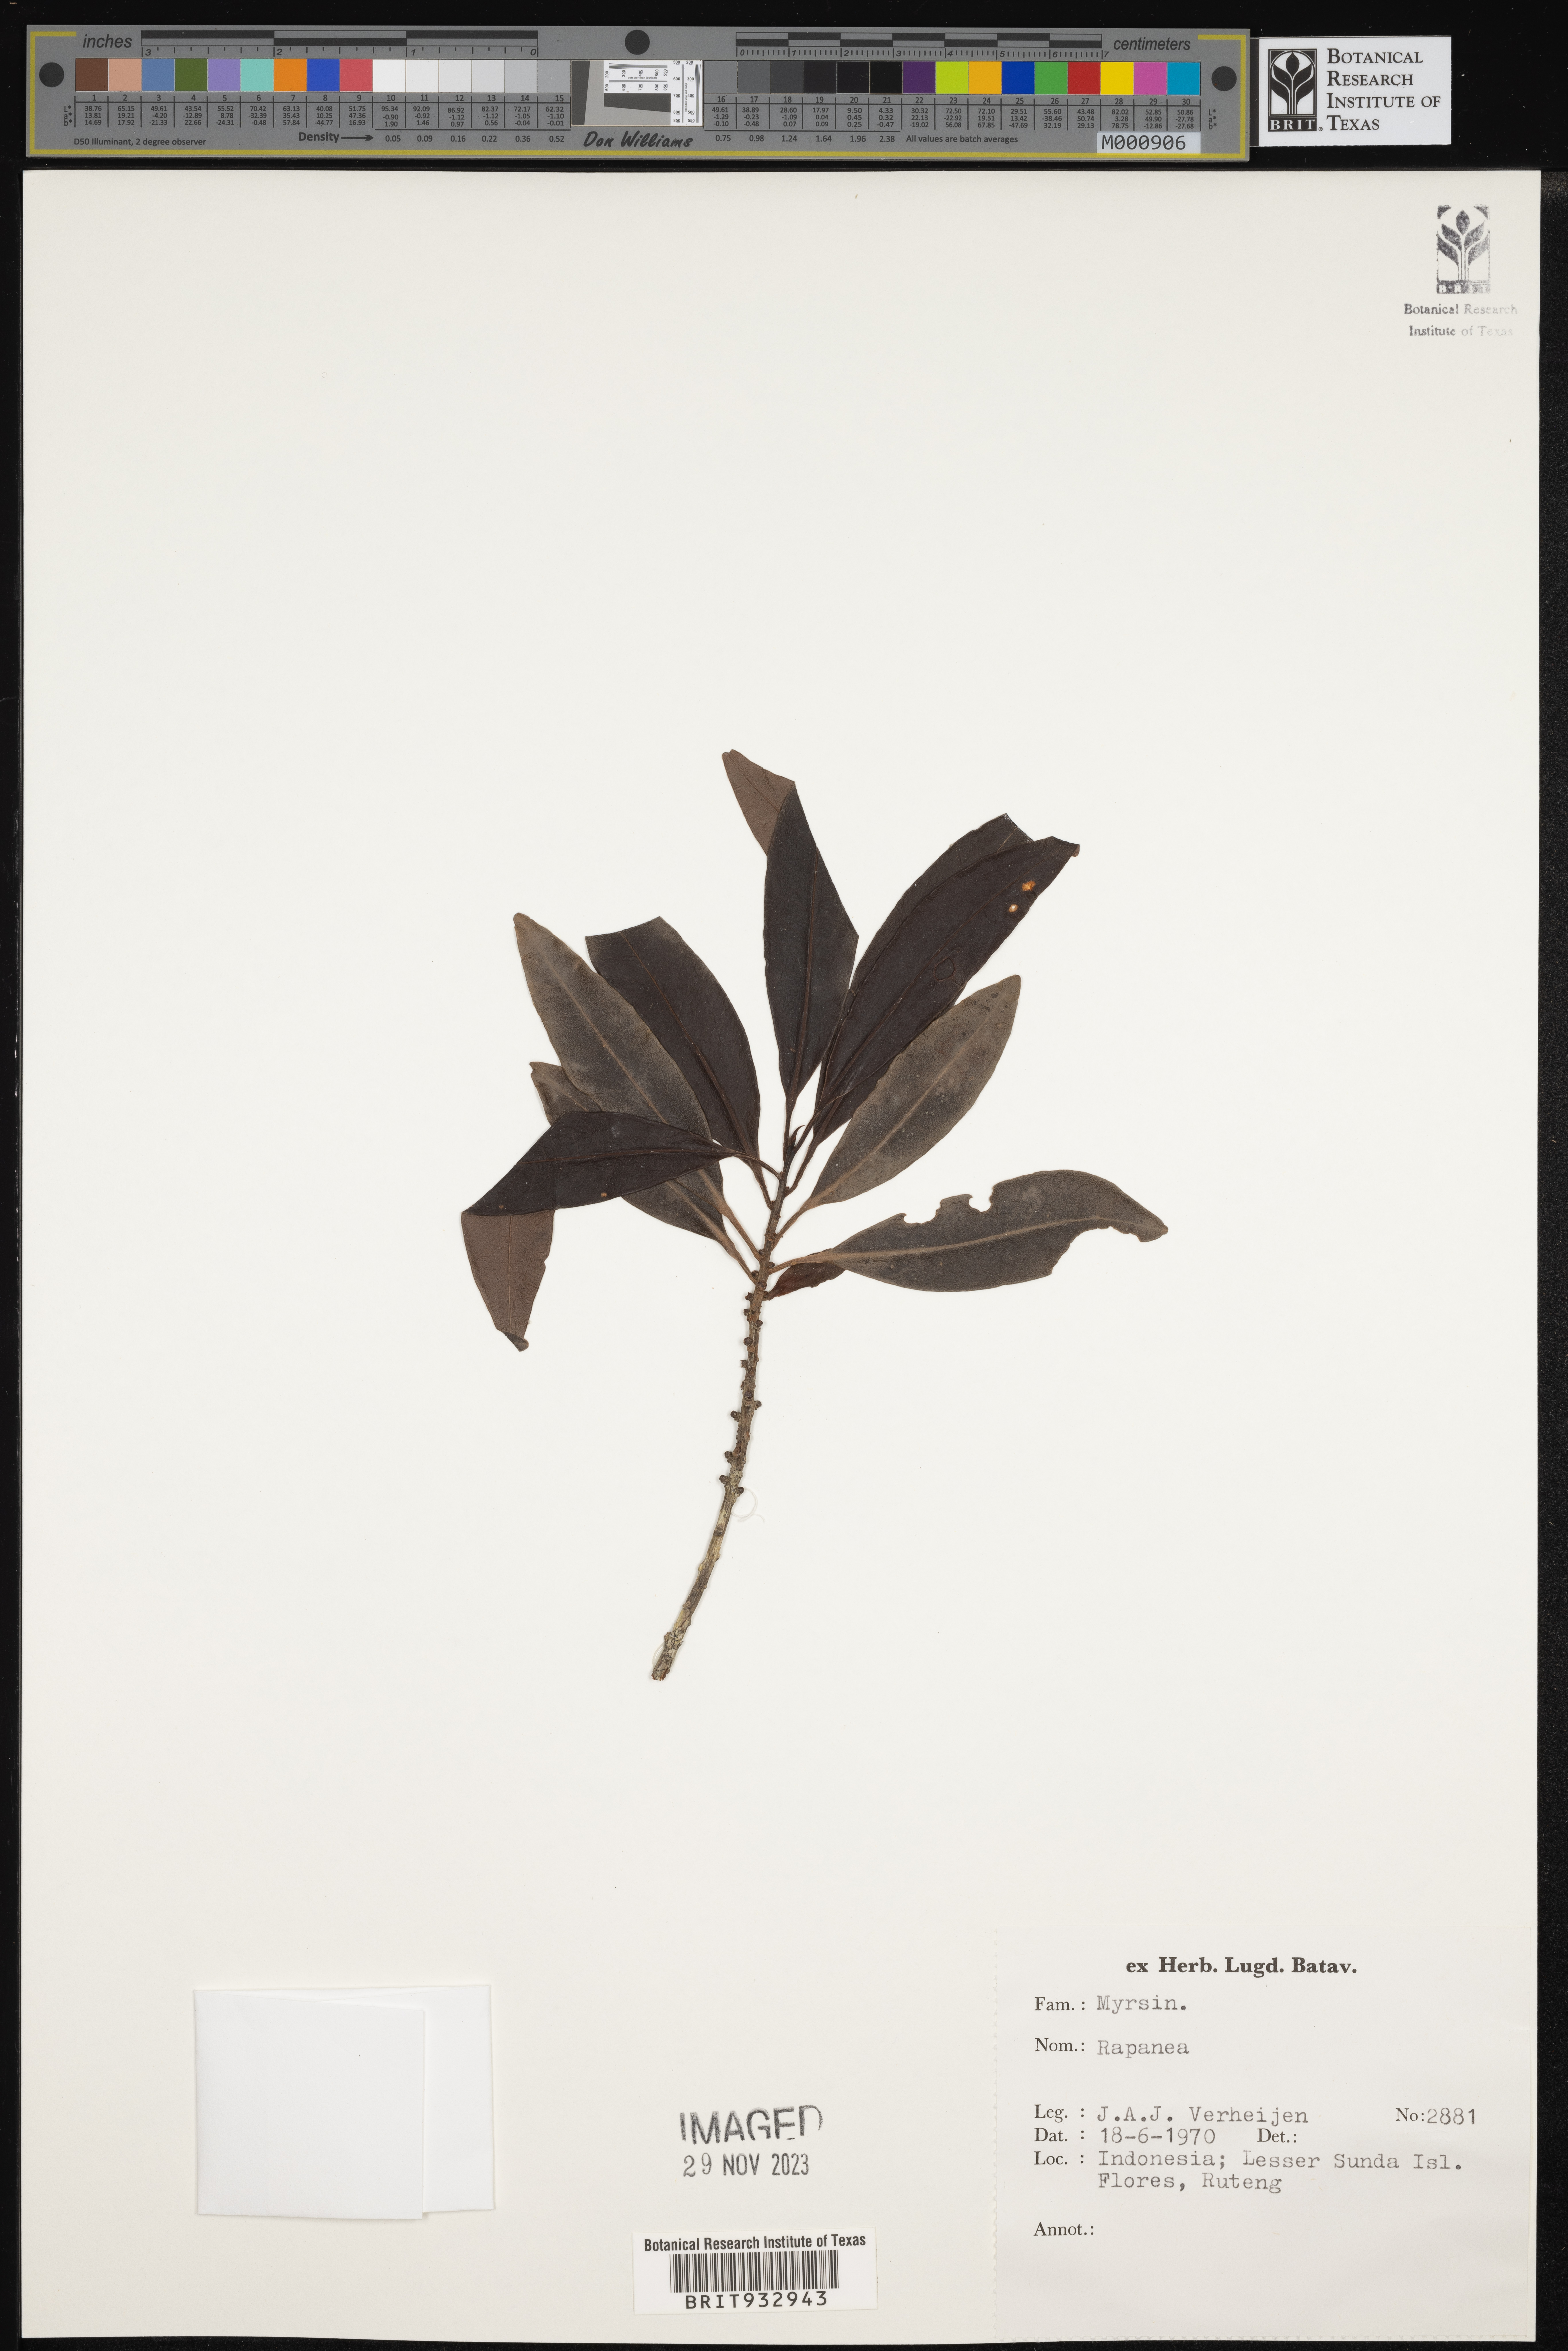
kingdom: Plantae
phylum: Tracheophyta
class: Magnoliopsida
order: Ericales
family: Primulaceae
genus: Myrsine
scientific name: Myrsine
